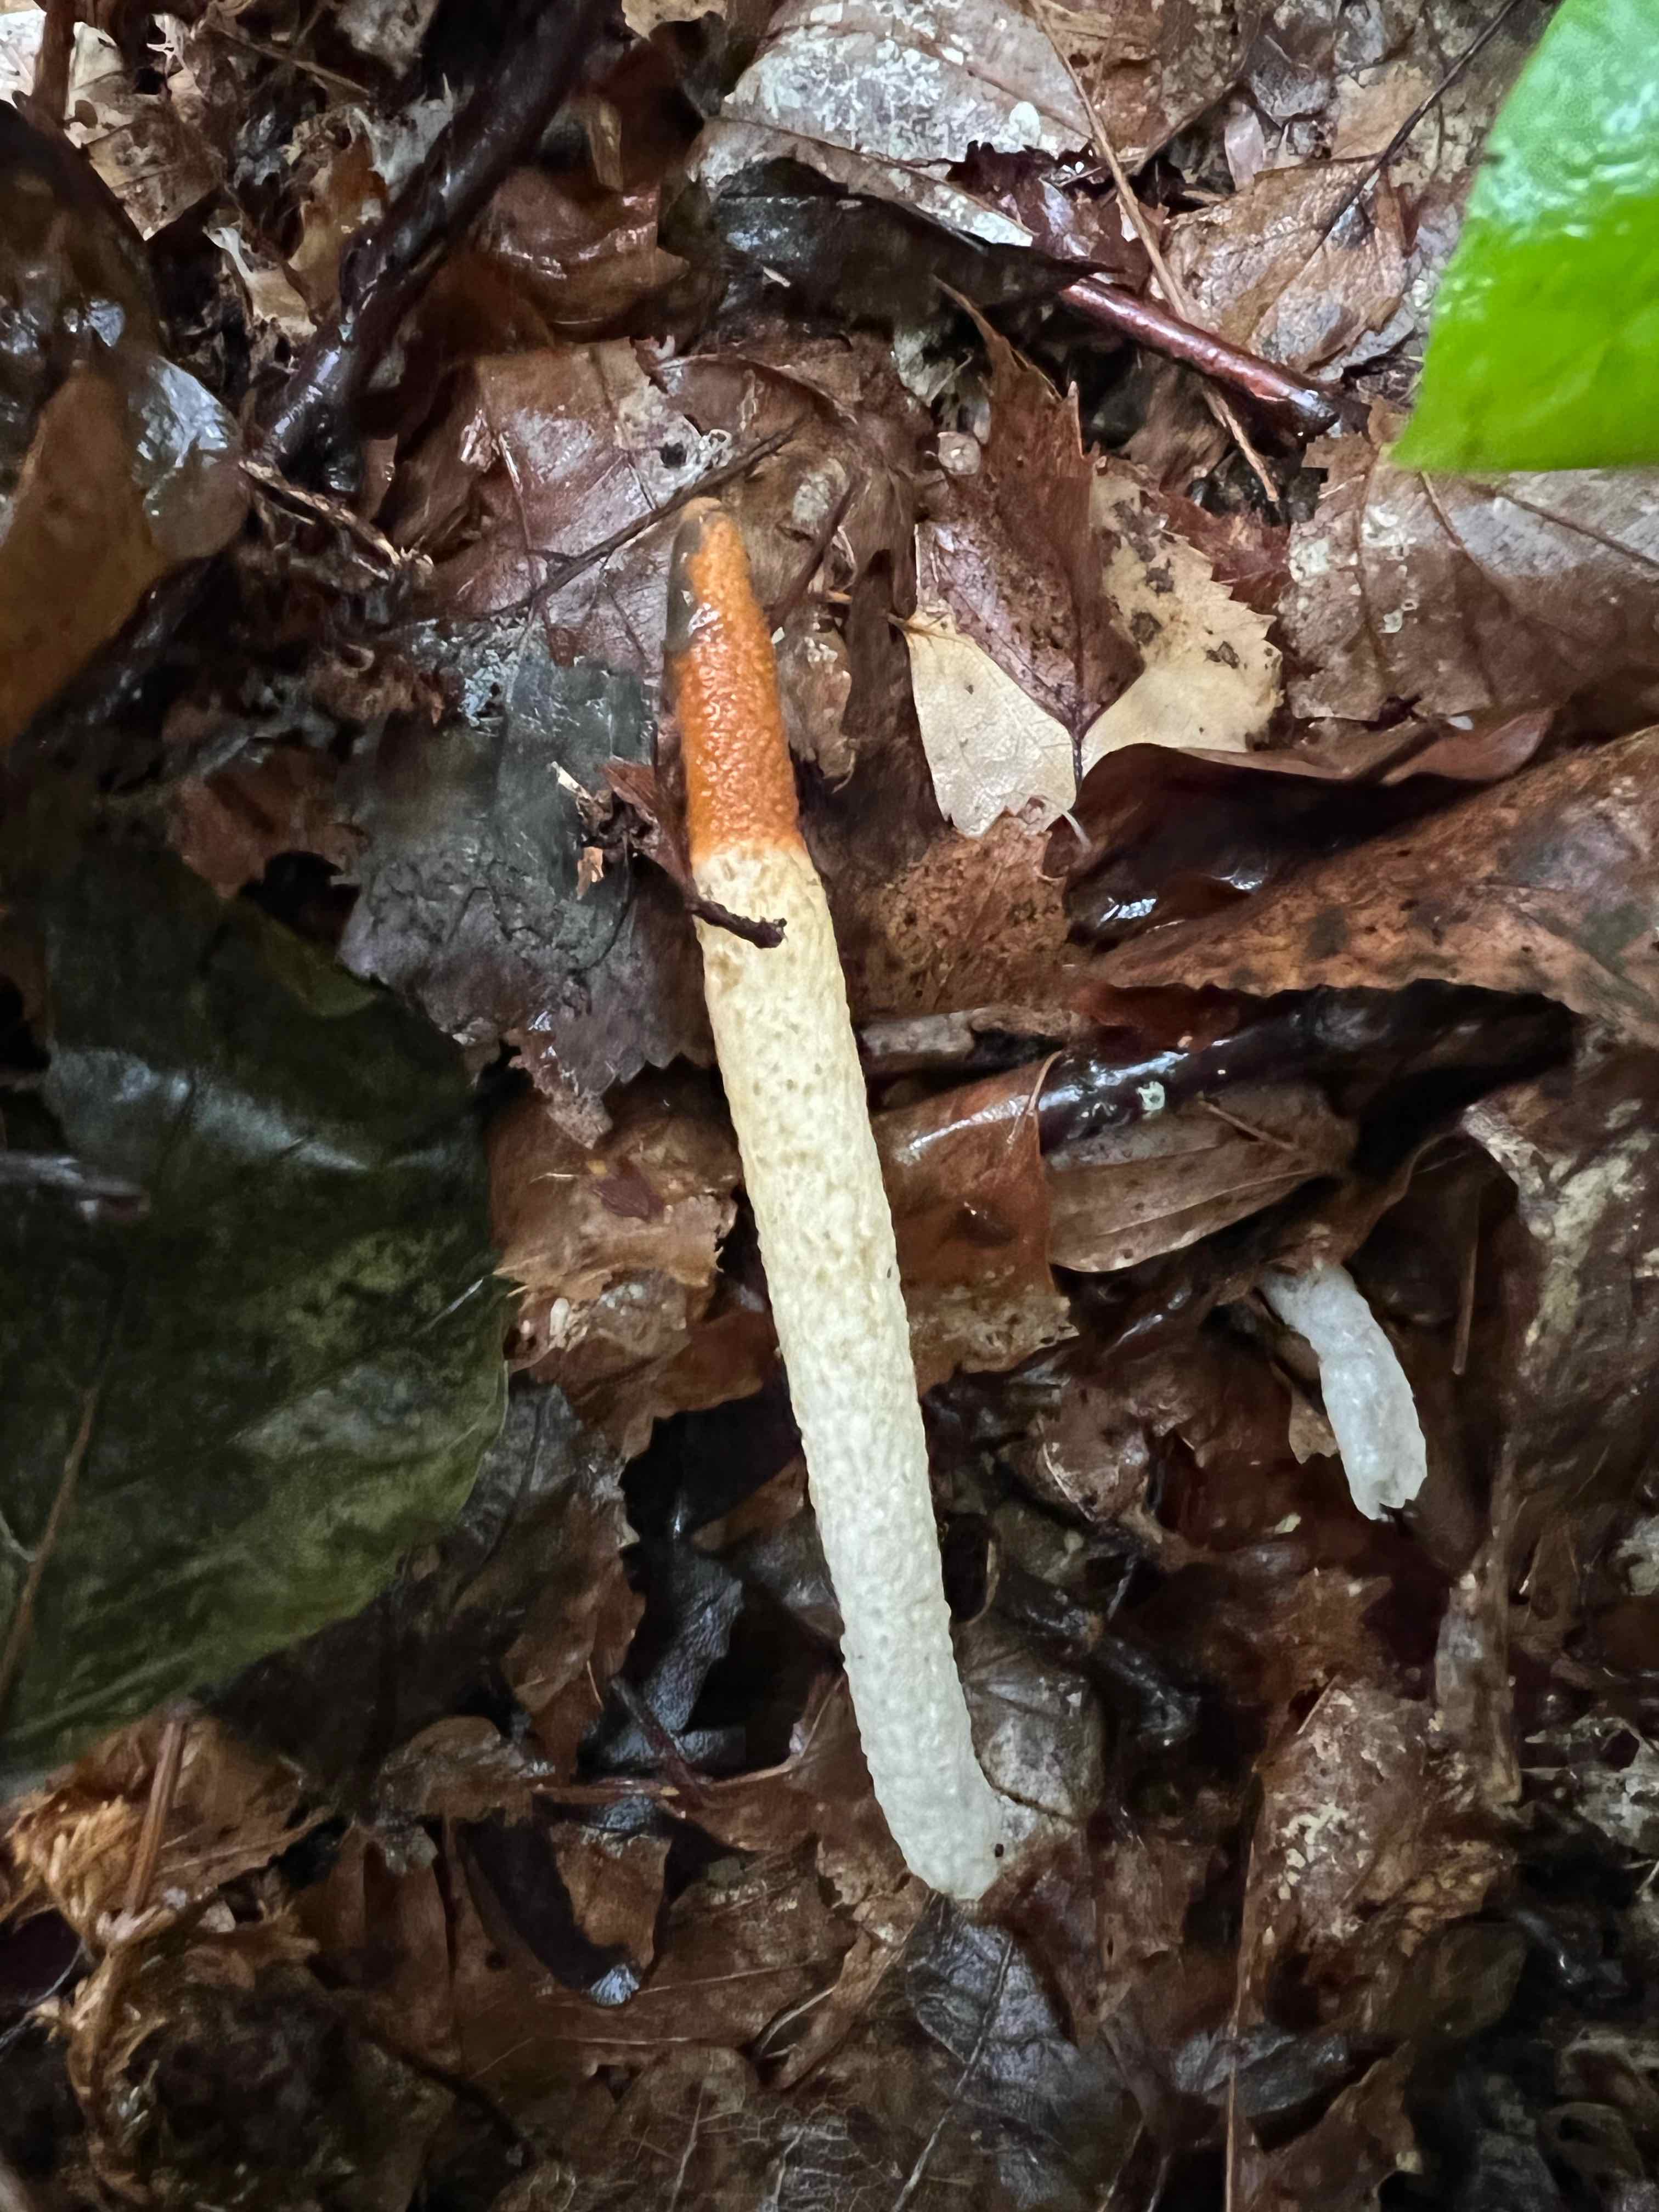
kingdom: Fungi
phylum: Basidiomycota
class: Agaricomycetes
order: Phallales
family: Phallaceae
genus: Mutinus
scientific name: Mutinus caninus
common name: hunde-stinksvamp
